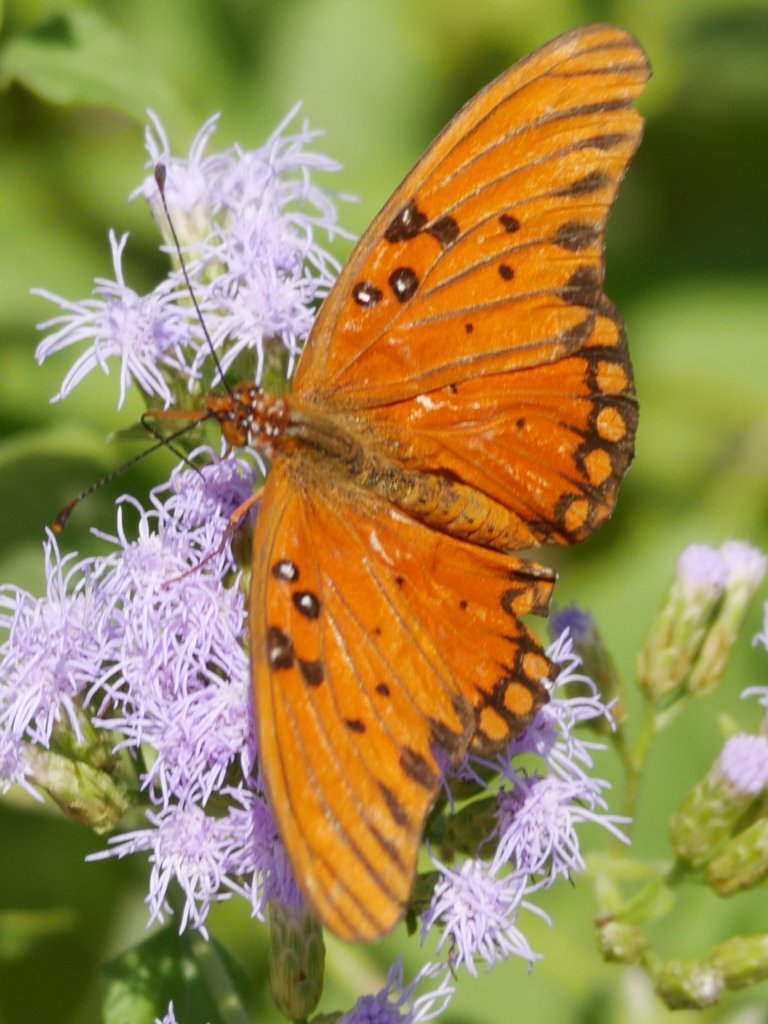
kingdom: Animalia
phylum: Arthropoda
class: Insecta
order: Lepidoptera
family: Nymphalidae
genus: Dione
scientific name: Dione vanillae
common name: Gulf Fritillary
